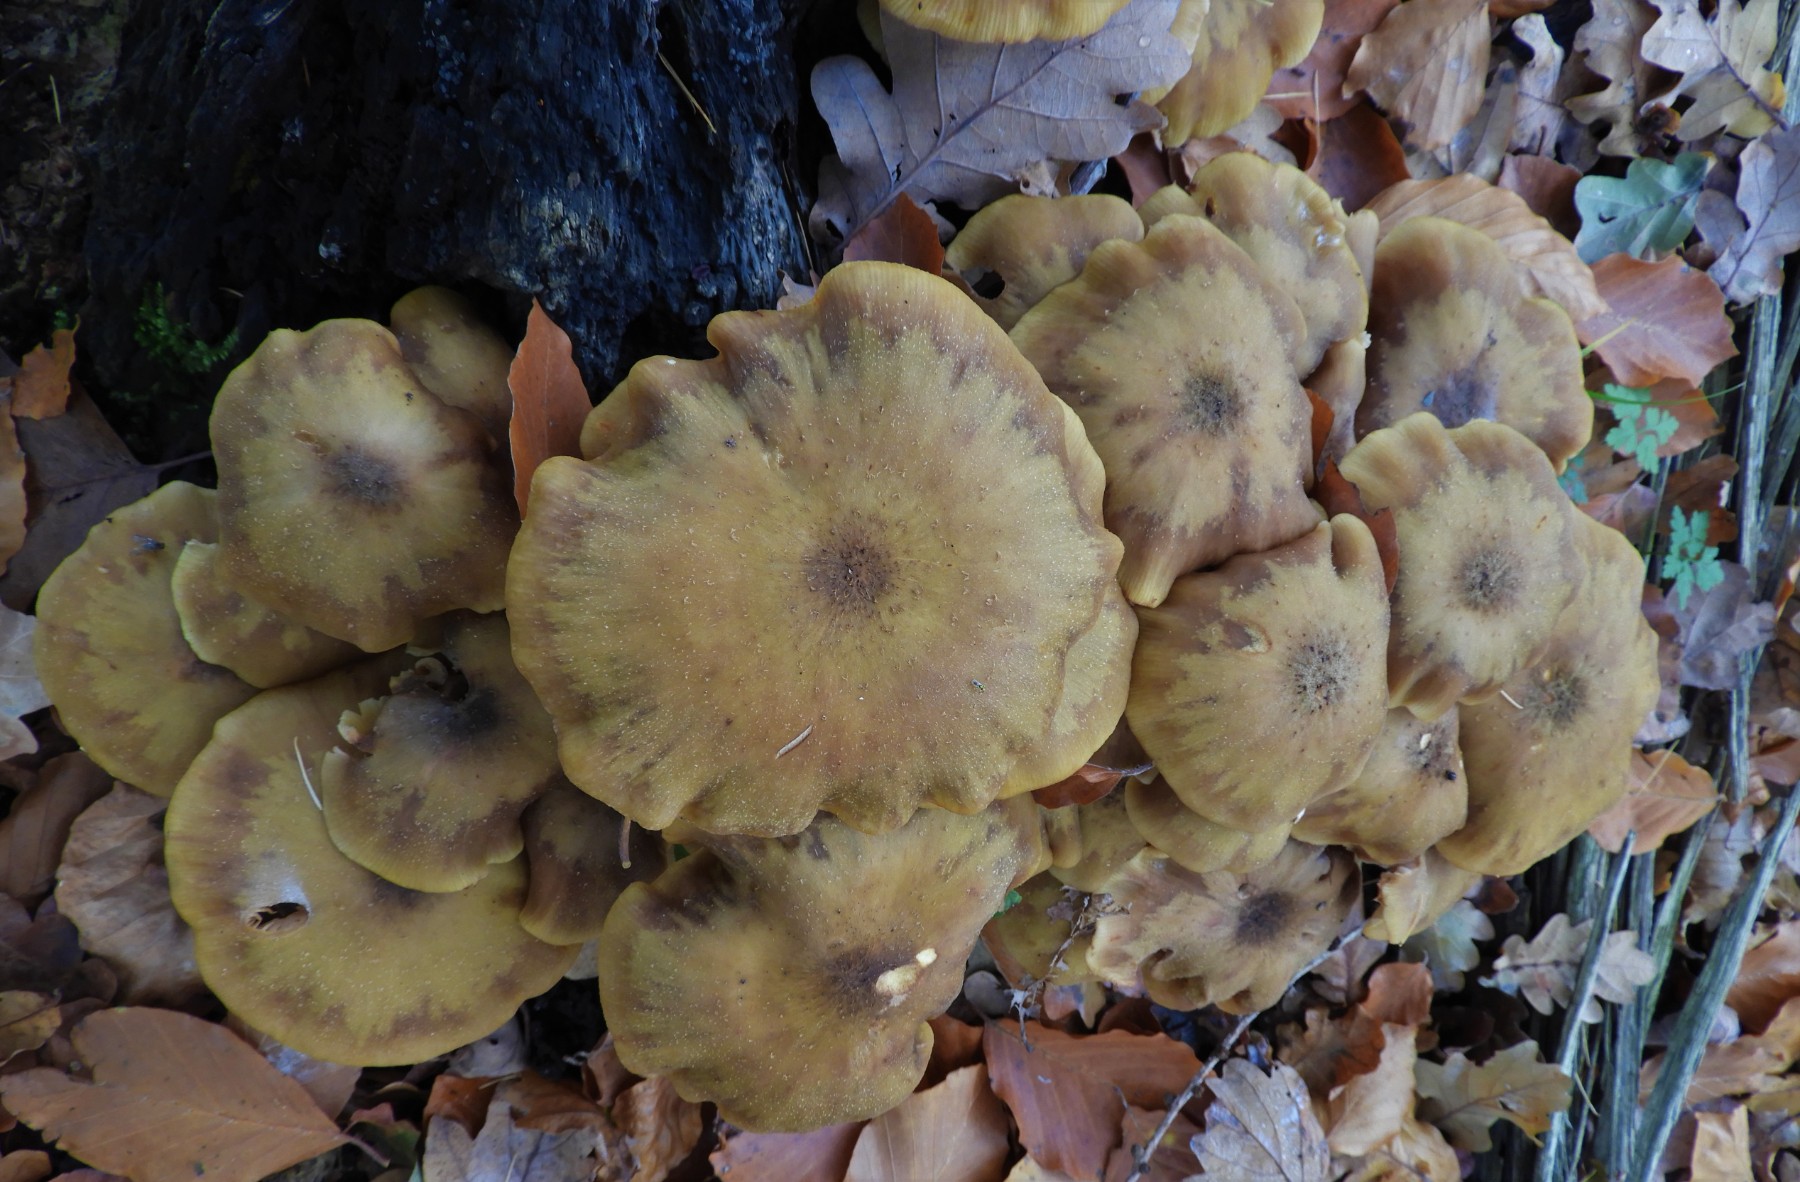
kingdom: Fungi
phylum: Basidiomycota
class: Agaricomycetes
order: Agaricales
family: Physalacriaceae
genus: Armillaria
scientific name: Armillaria mellea
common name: ægte honningsvamp
